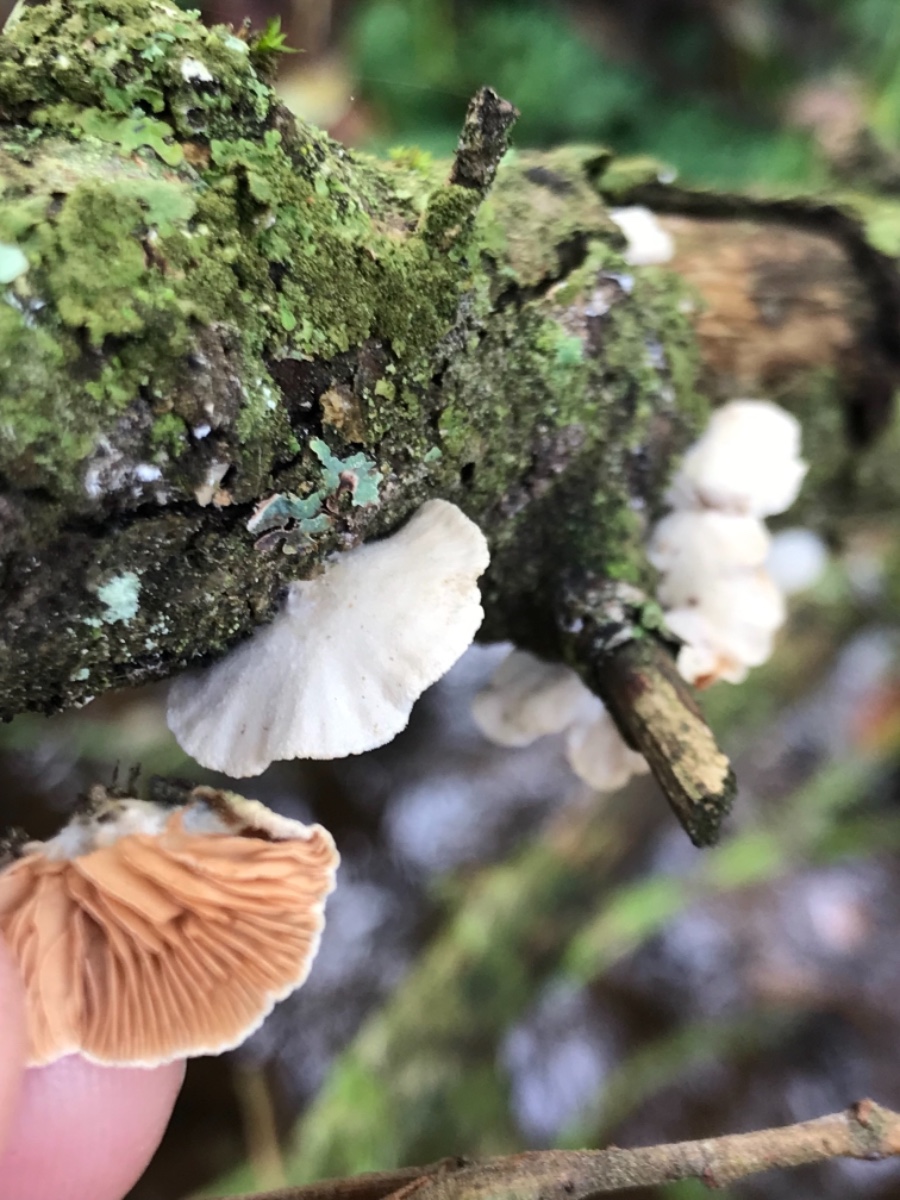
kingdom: Fungi
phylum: Basidiomycota
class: Agaricomycetes
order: Agaricales
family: Crepidotaceae
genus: Crepidotus
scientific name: Crepidotus
